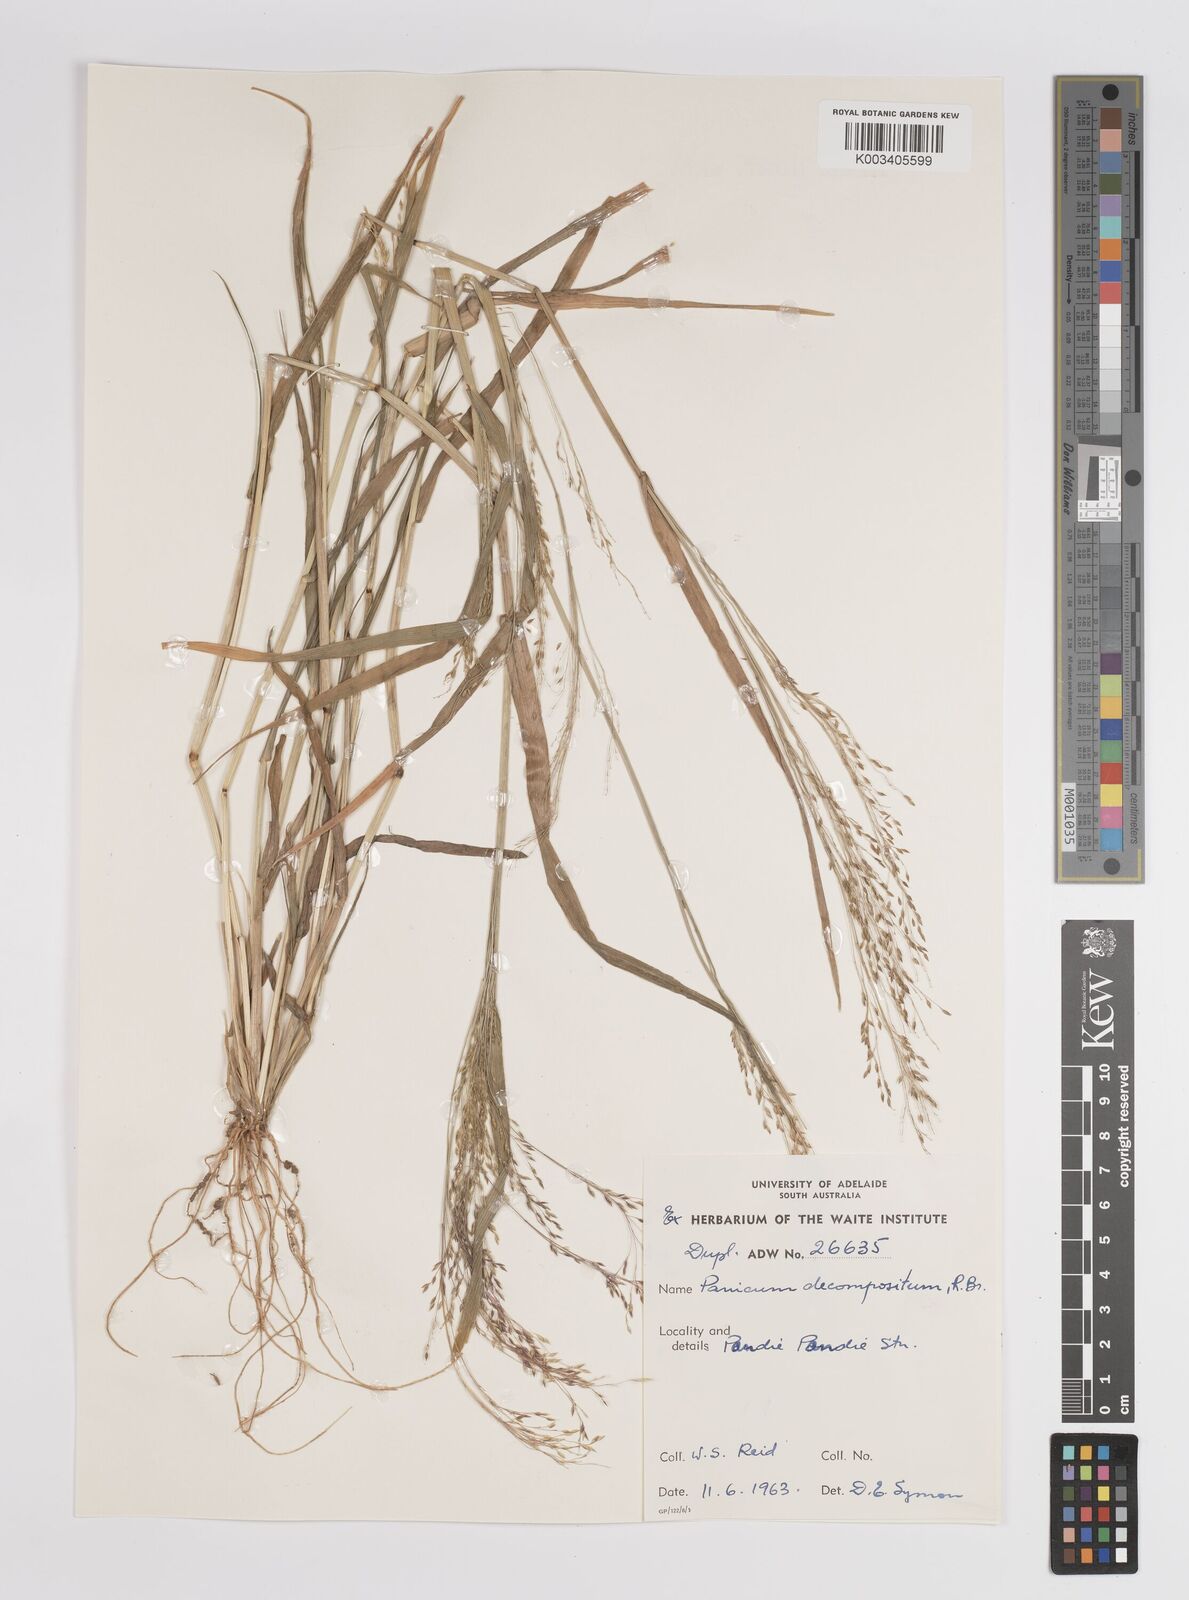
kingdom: Plantae
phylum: Tracheophyta
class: Liliopsida
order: Poales
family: Poaceae
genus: Panicum
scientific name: Panicum
